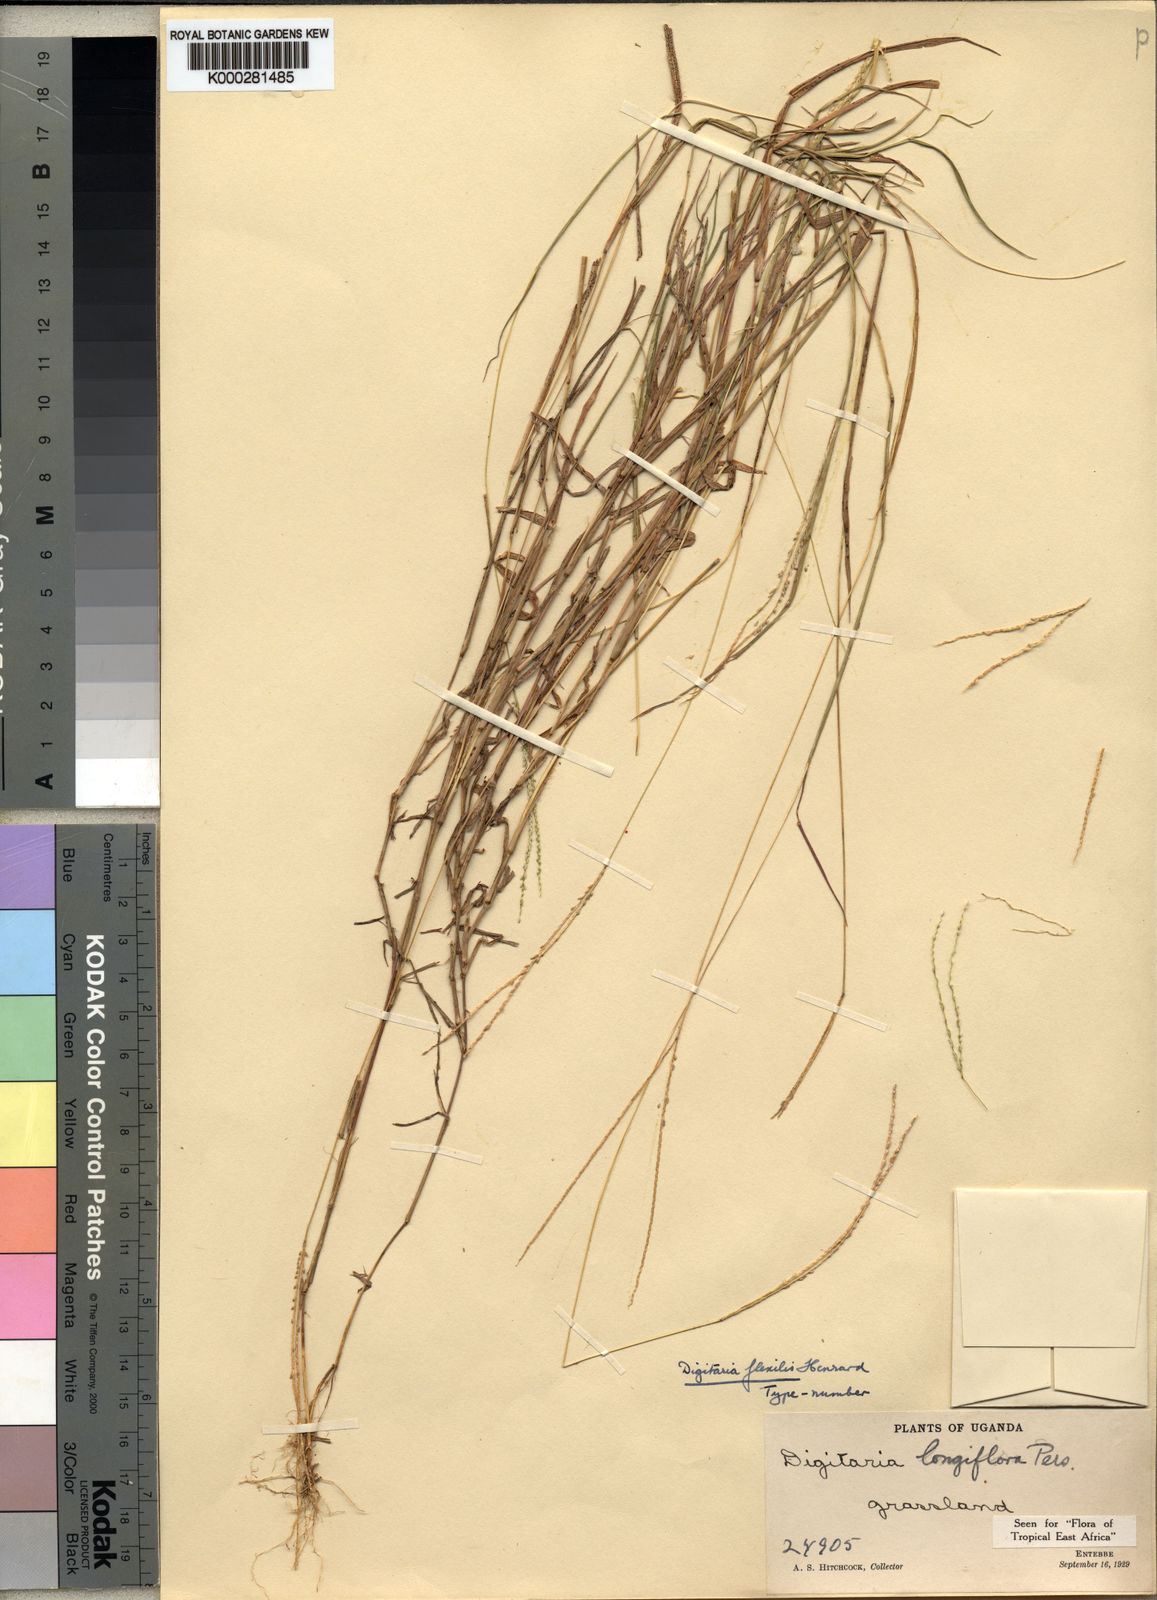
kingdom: Plantae
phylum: Tracheophyta
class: Liliopsida
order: Poales
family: Poaceae
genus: Digitaria
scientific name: Digitaria longiflora
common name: Wire crabgrass
